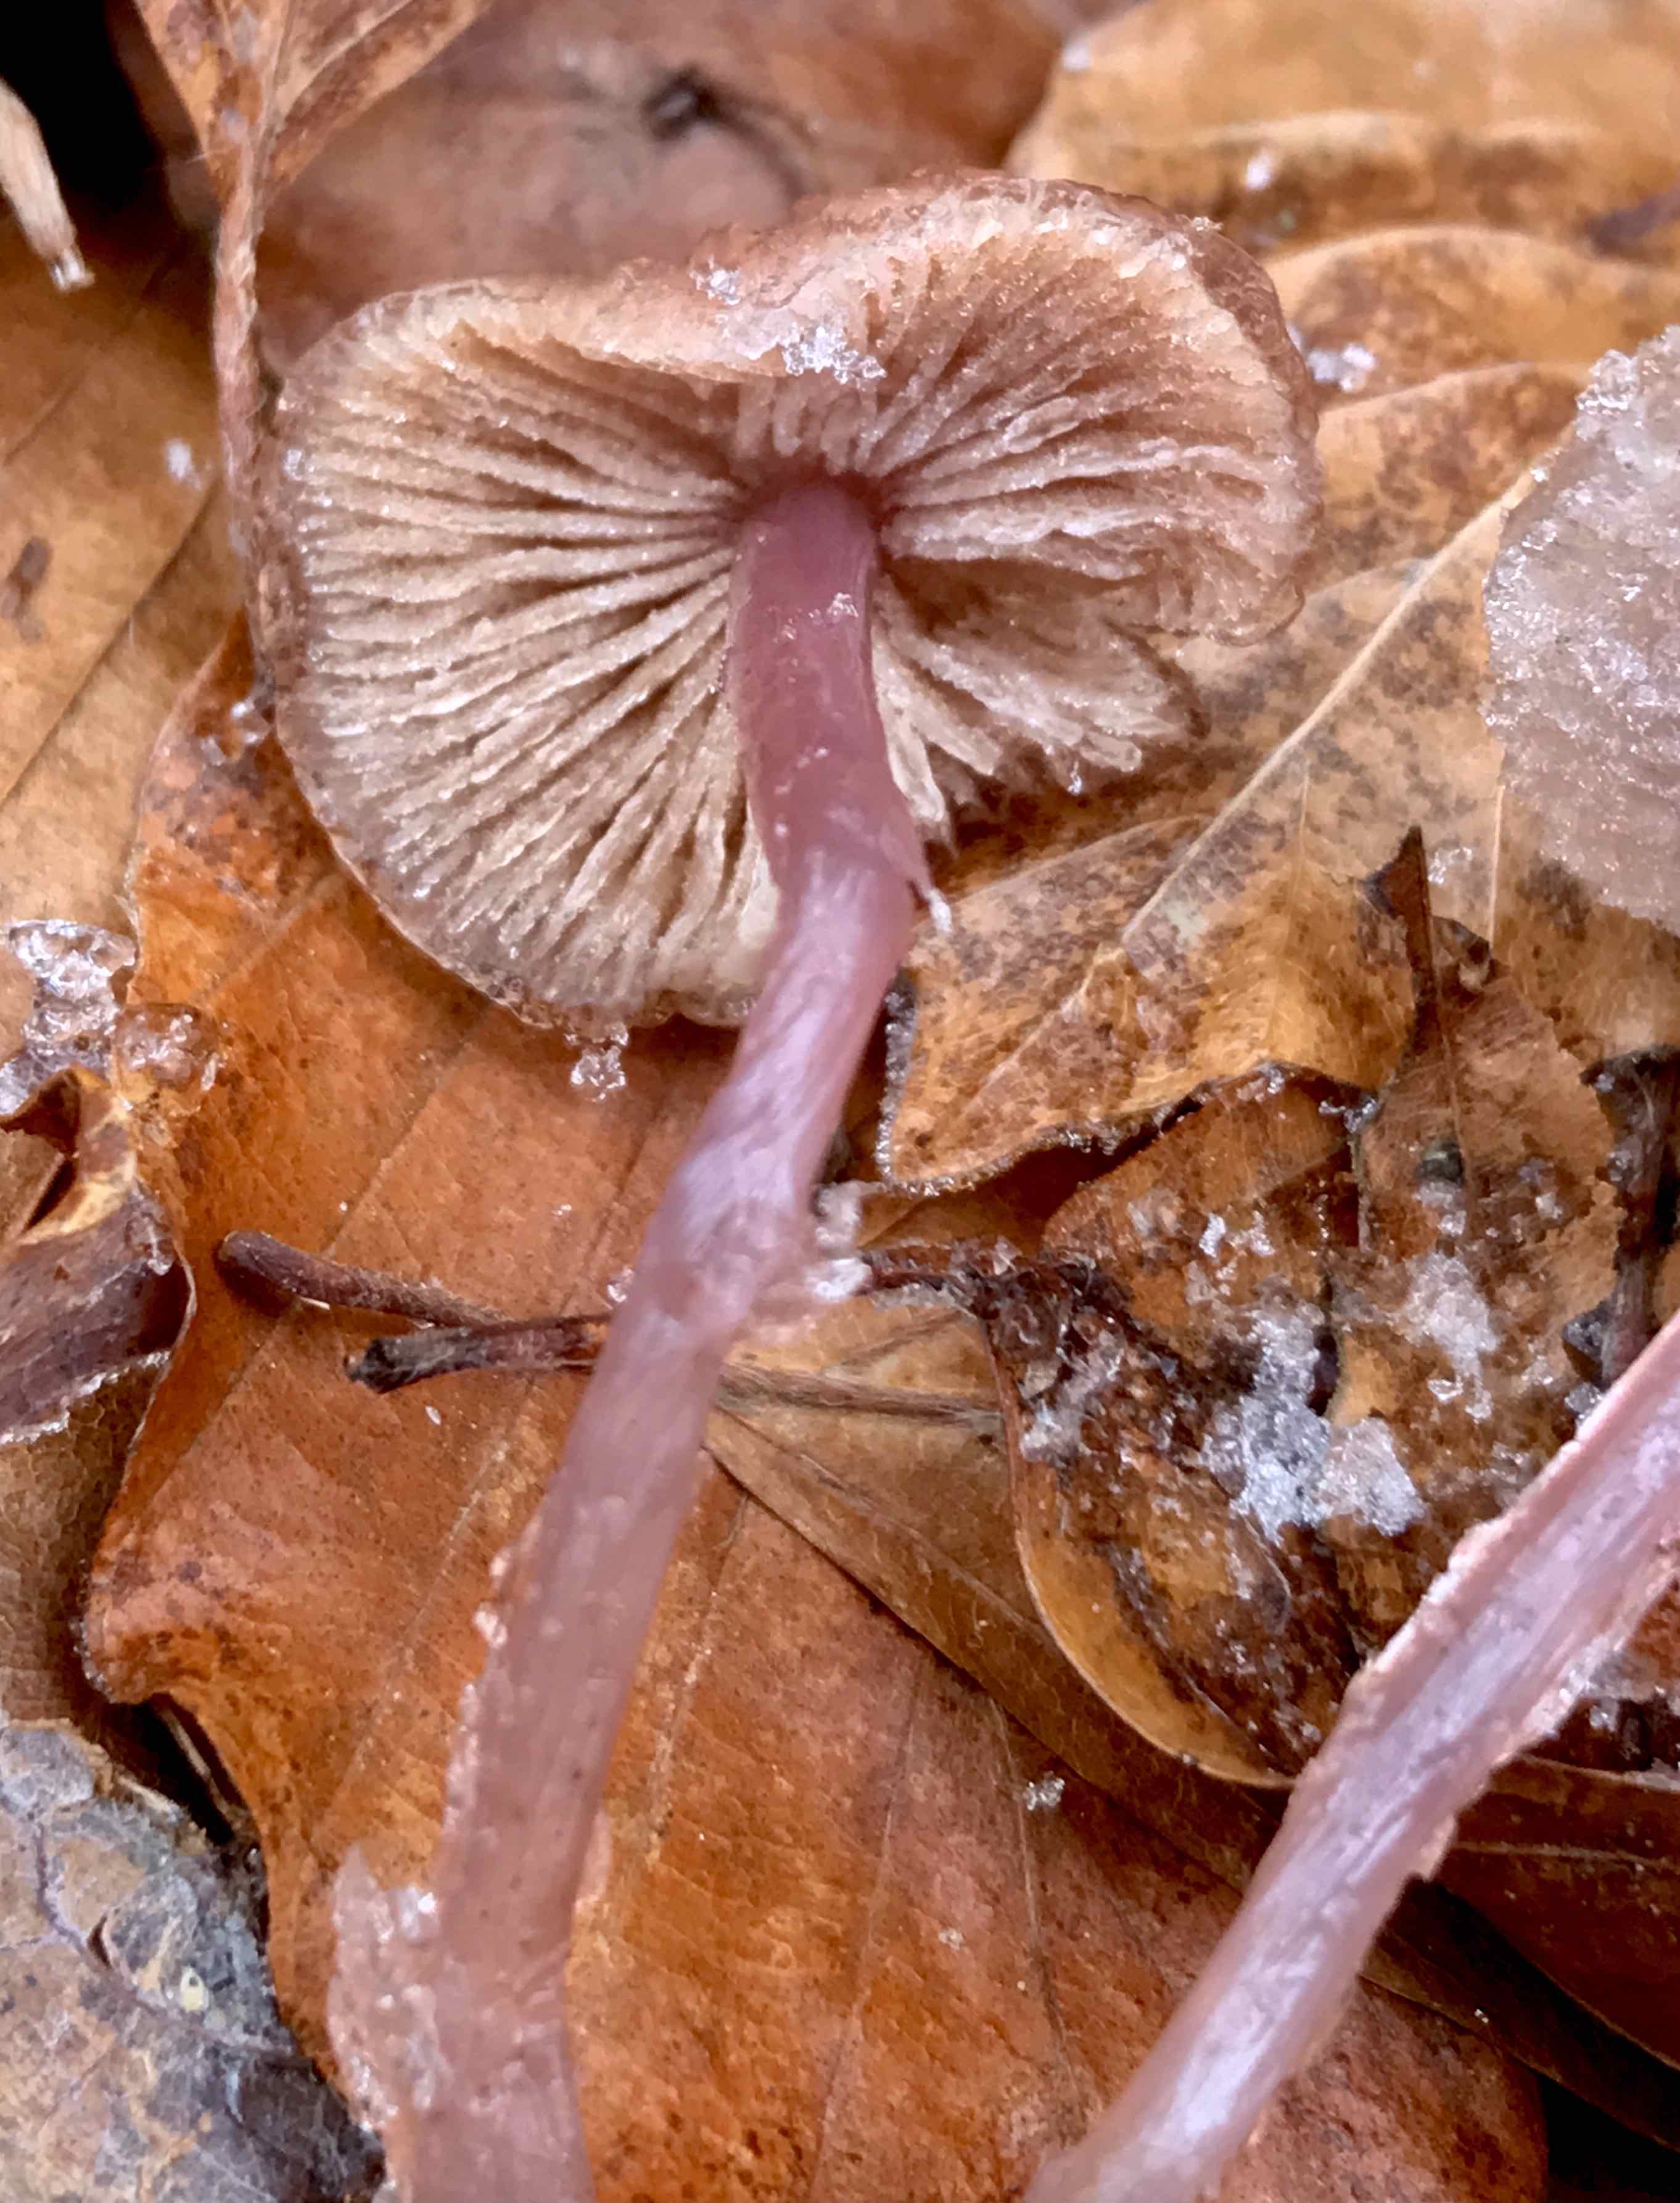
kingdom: Fungi
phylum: Basidiomycota
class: Agaricomycetes
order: Agaricales
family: Mycenaceae
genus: Mycena
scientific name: Mycena rosea
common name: rosa huesvamp
